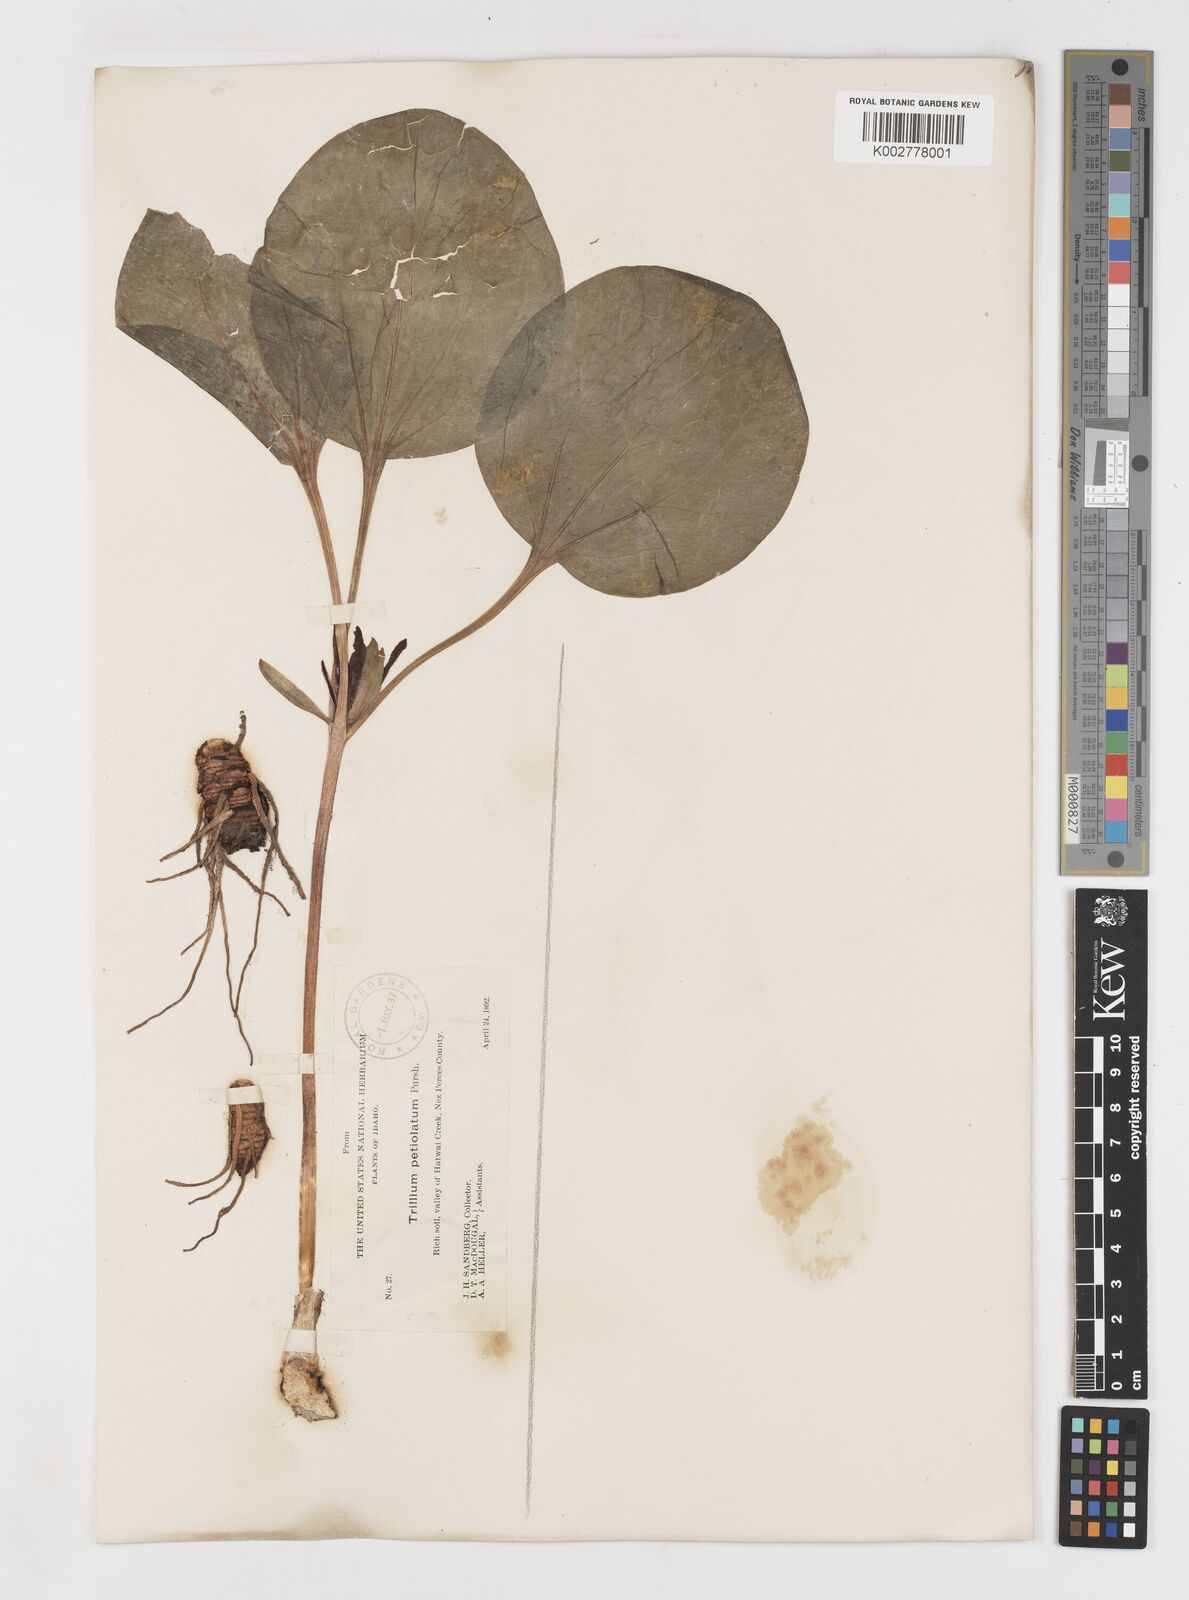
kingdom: Plantae
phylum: Tracheophyta
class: Liliopsida
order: Liliales
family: Melanthiaceae
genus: Trillium
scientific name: Trillium petiolatum
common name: Idaho trillium
